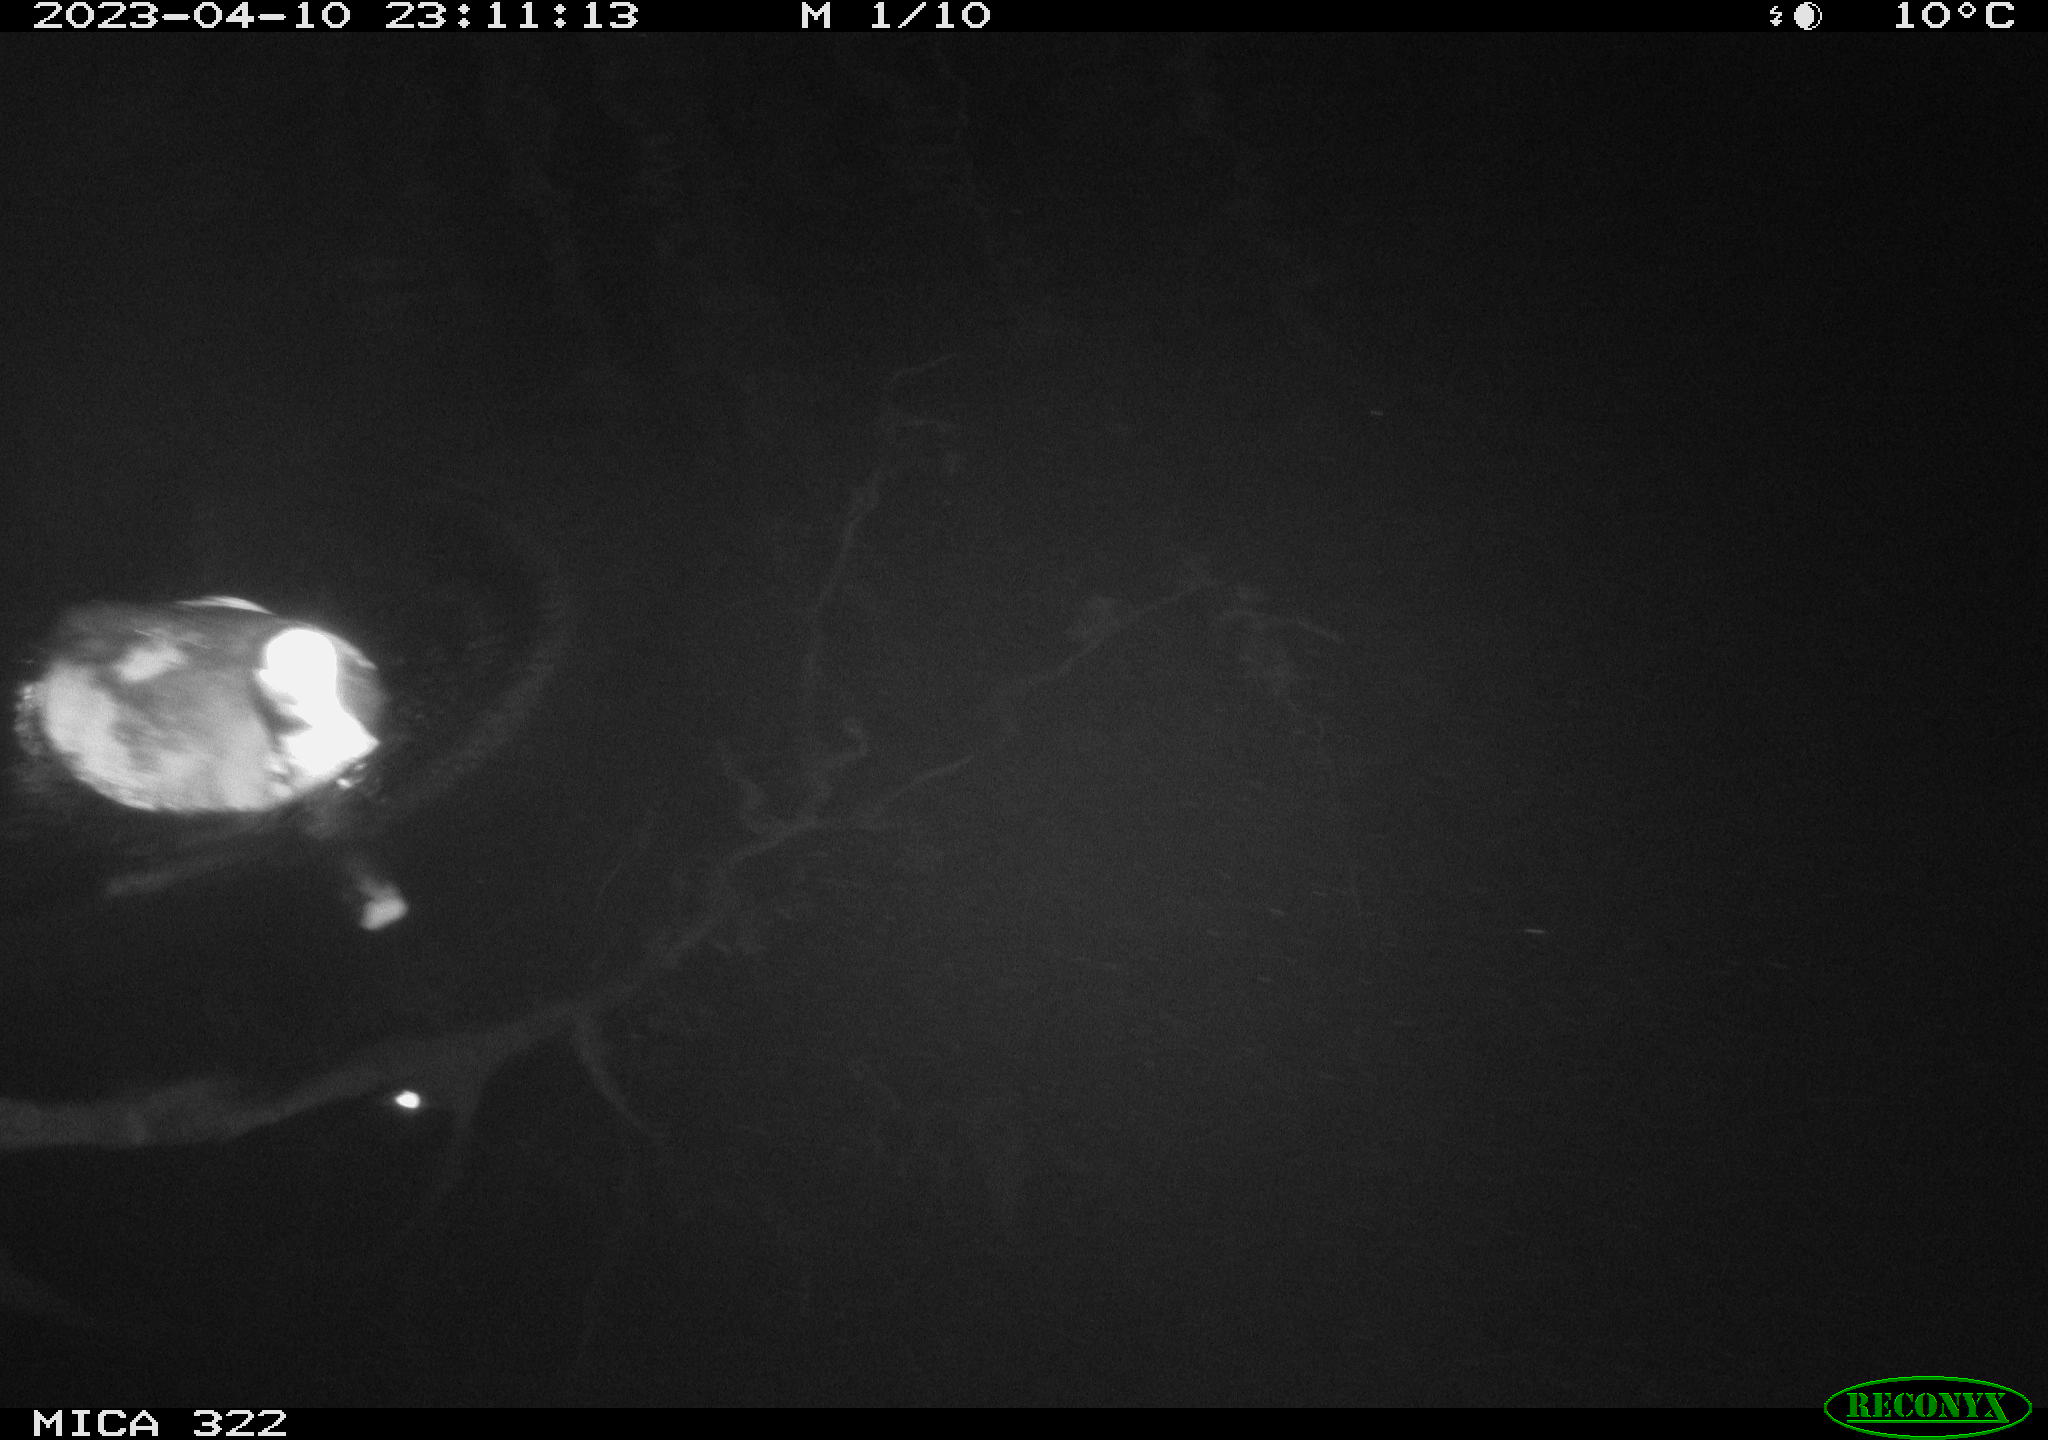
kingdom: Animalia
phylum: Chordata
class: Aves
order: Anseriformes
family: Anatidae
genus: Anas
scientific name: Anas
